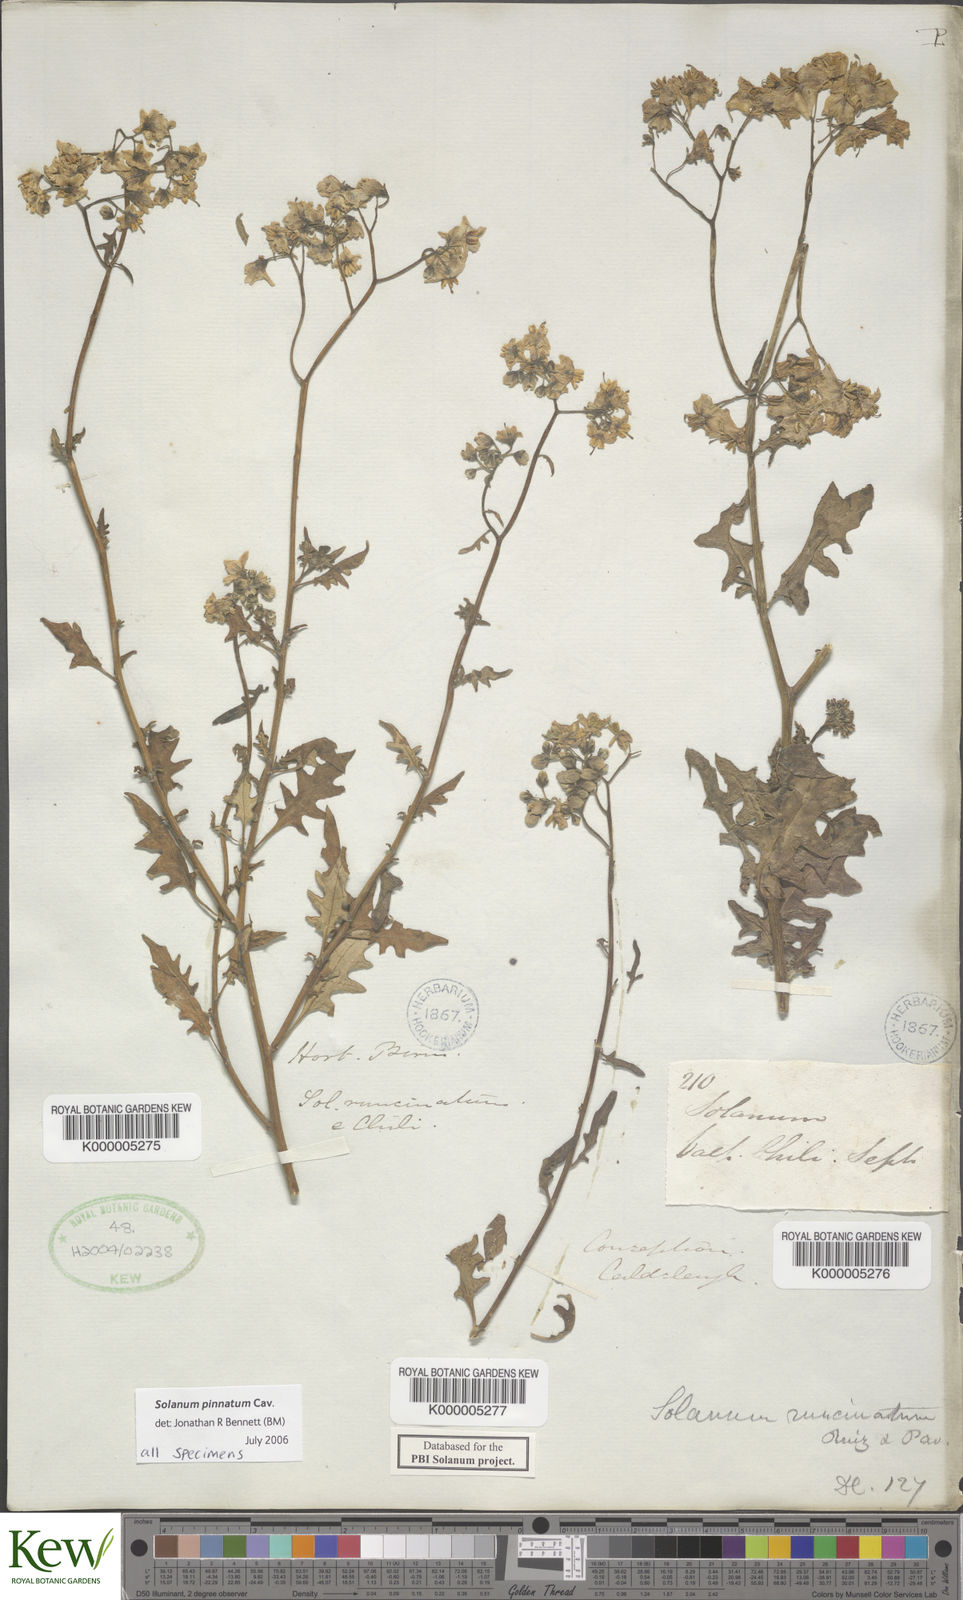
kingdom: Plantae
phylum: Tracheophyta
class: Magnoliopsida
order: Solanales
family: Solanaceae
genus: Solanum
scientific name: Solanum pinnatum
